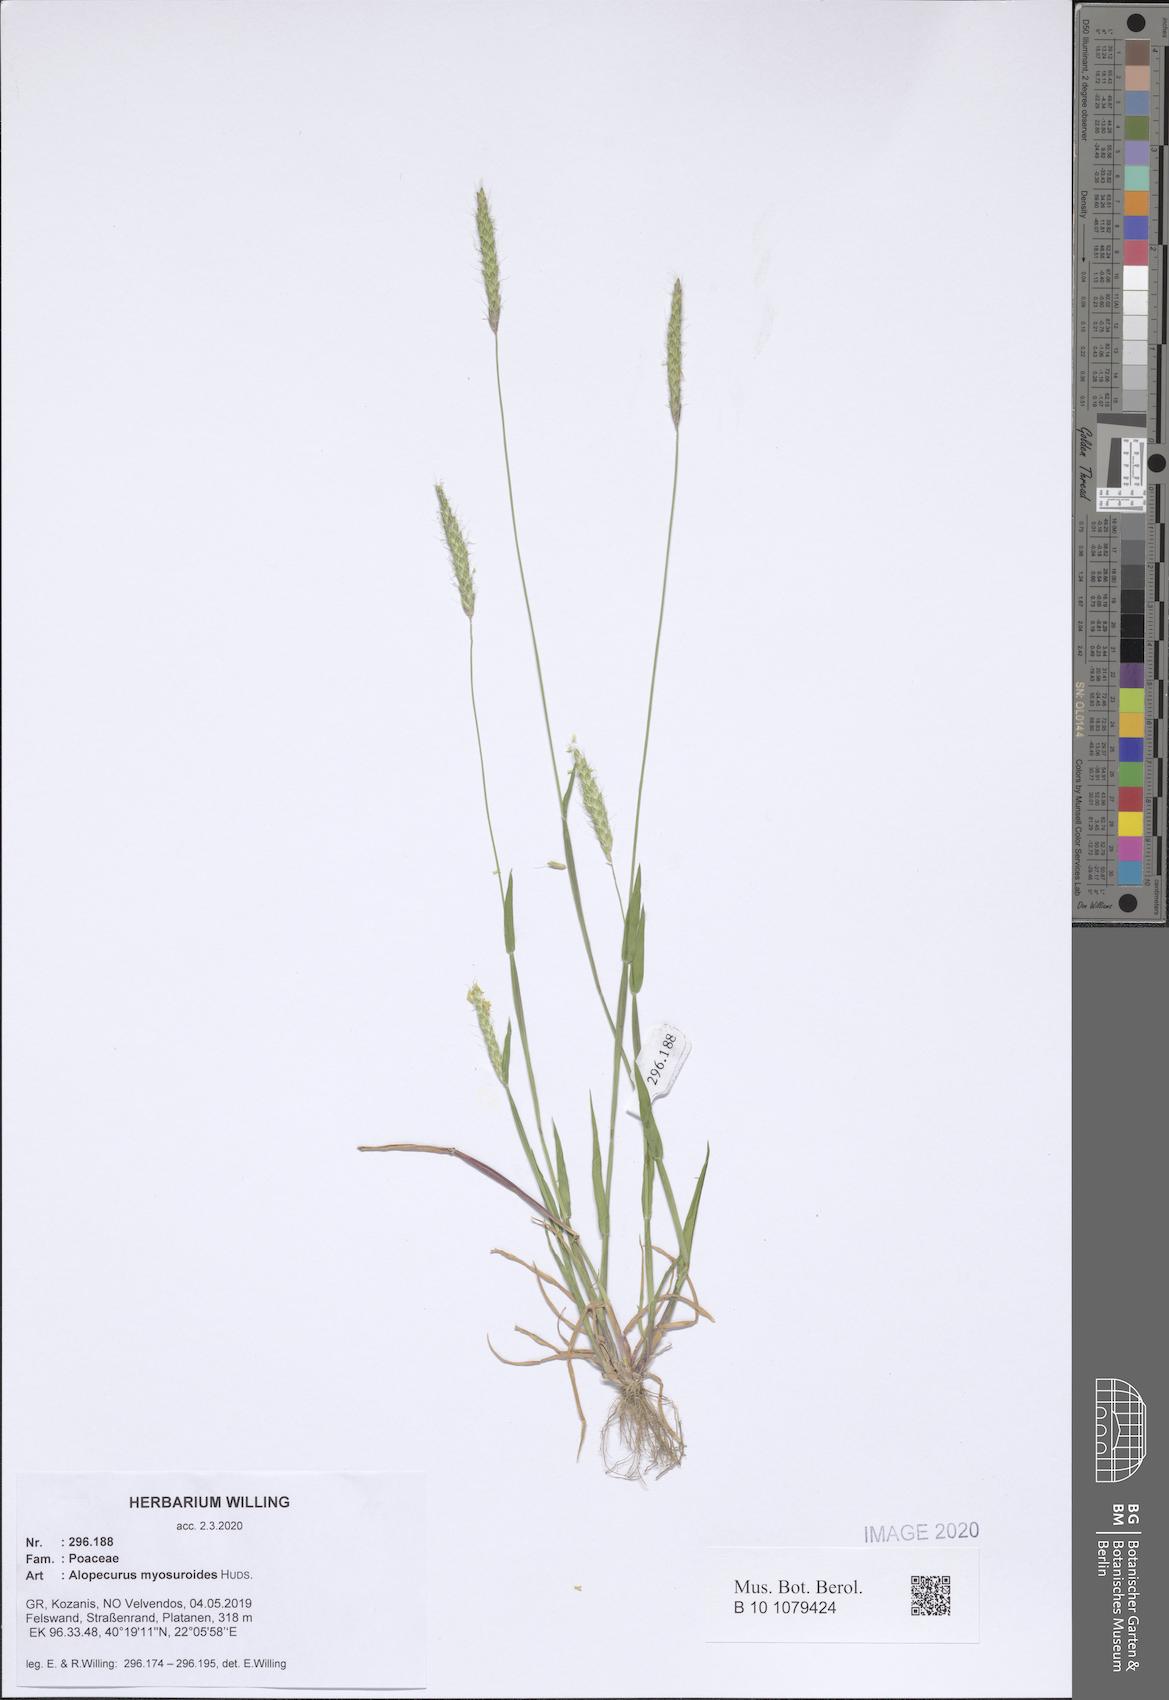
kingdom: Plantae
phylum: Tracheophyta
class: Liliopsida
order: Poales
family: Poaceae
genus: Alopecurus
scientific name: Alopecurus myosuroides
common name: Black-grass
